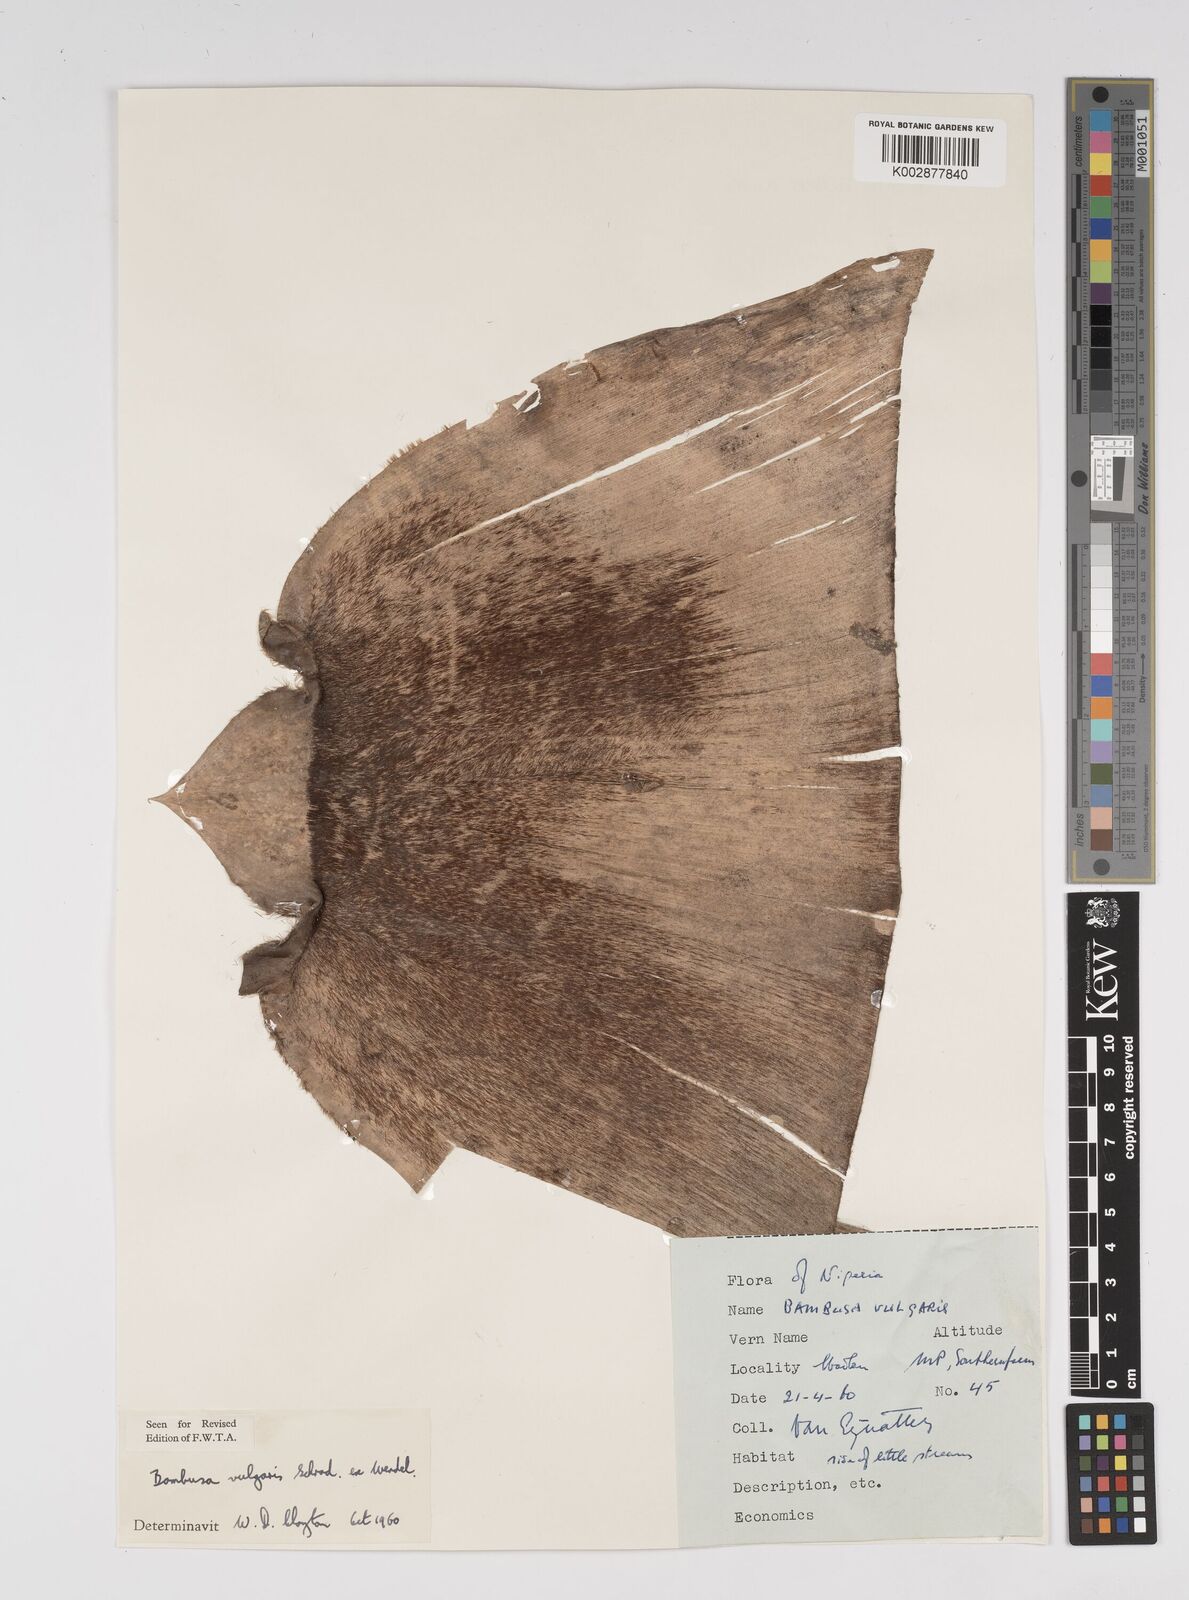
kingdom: Plantae
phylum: Tracheophyta
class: Liliopsida
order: Poales
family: Poaceae
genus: Bambusa
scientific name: Bambusa vulgaris
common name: Common bamboo
